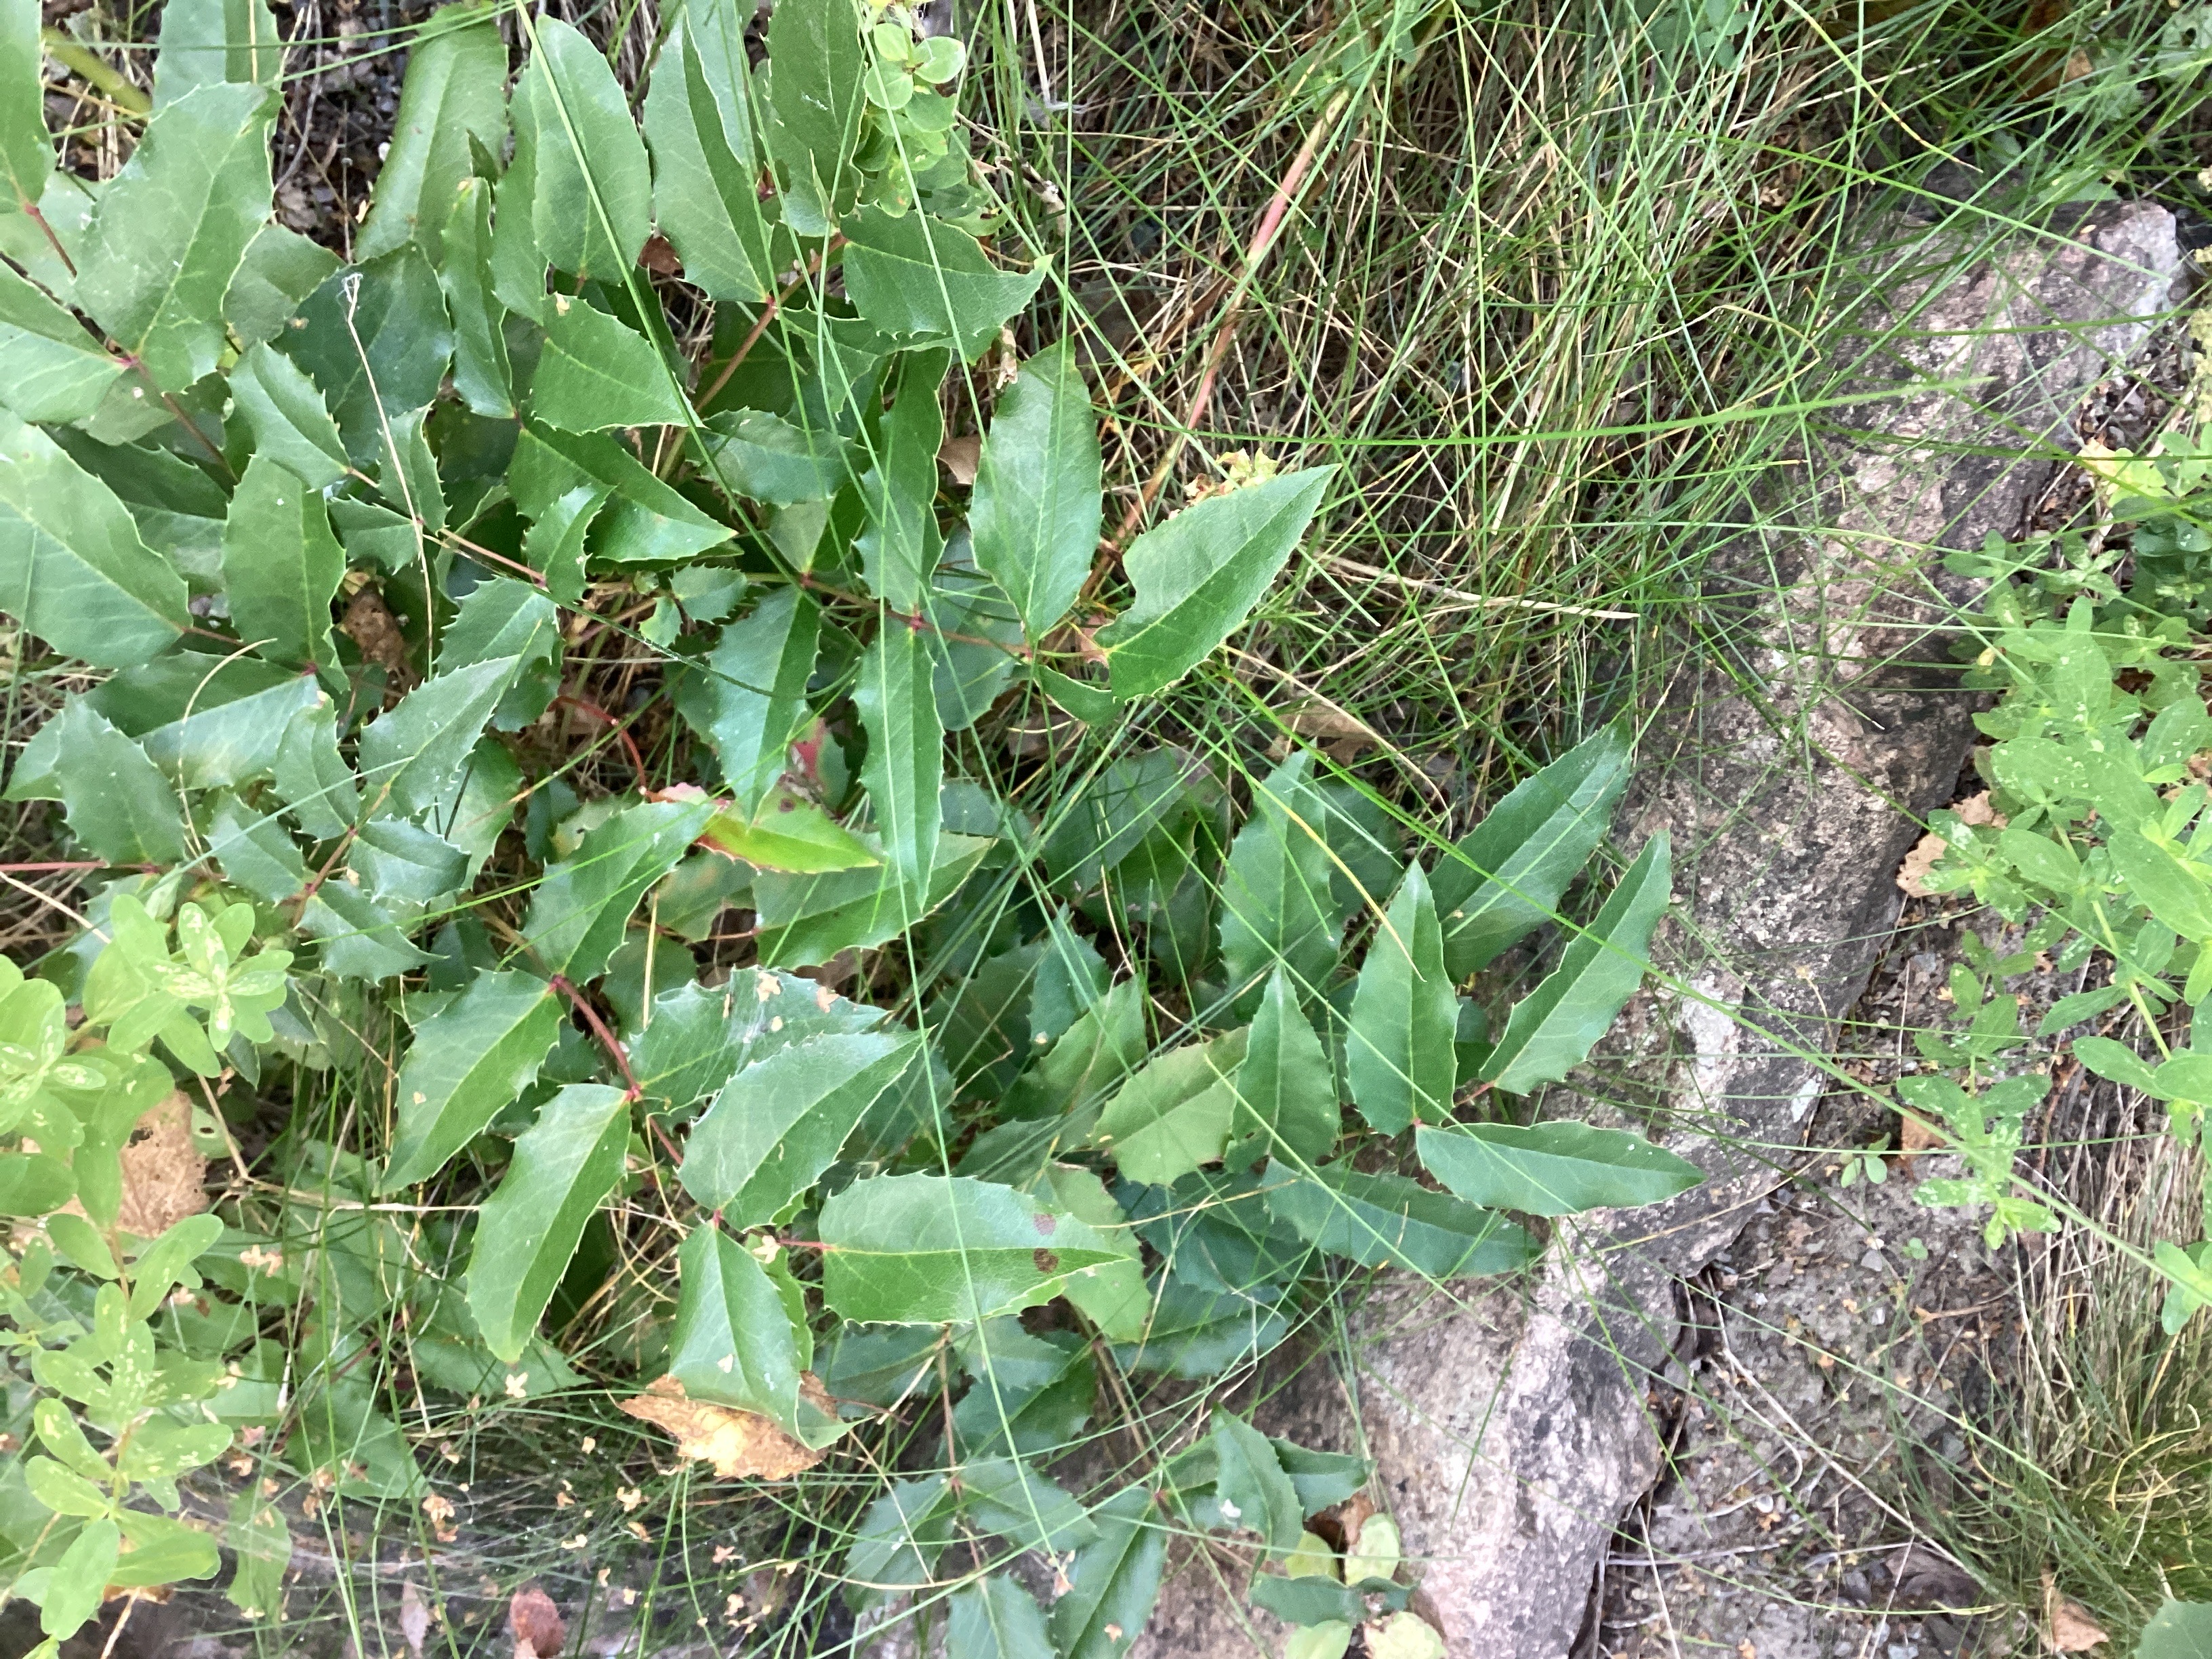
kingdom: Plantae
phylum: Tracheophyta
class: Magnoliopsida
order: Ranunculales
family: Berberidaceae
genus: Mahonia
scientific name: Mahonia aquifolium
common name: mahonie
